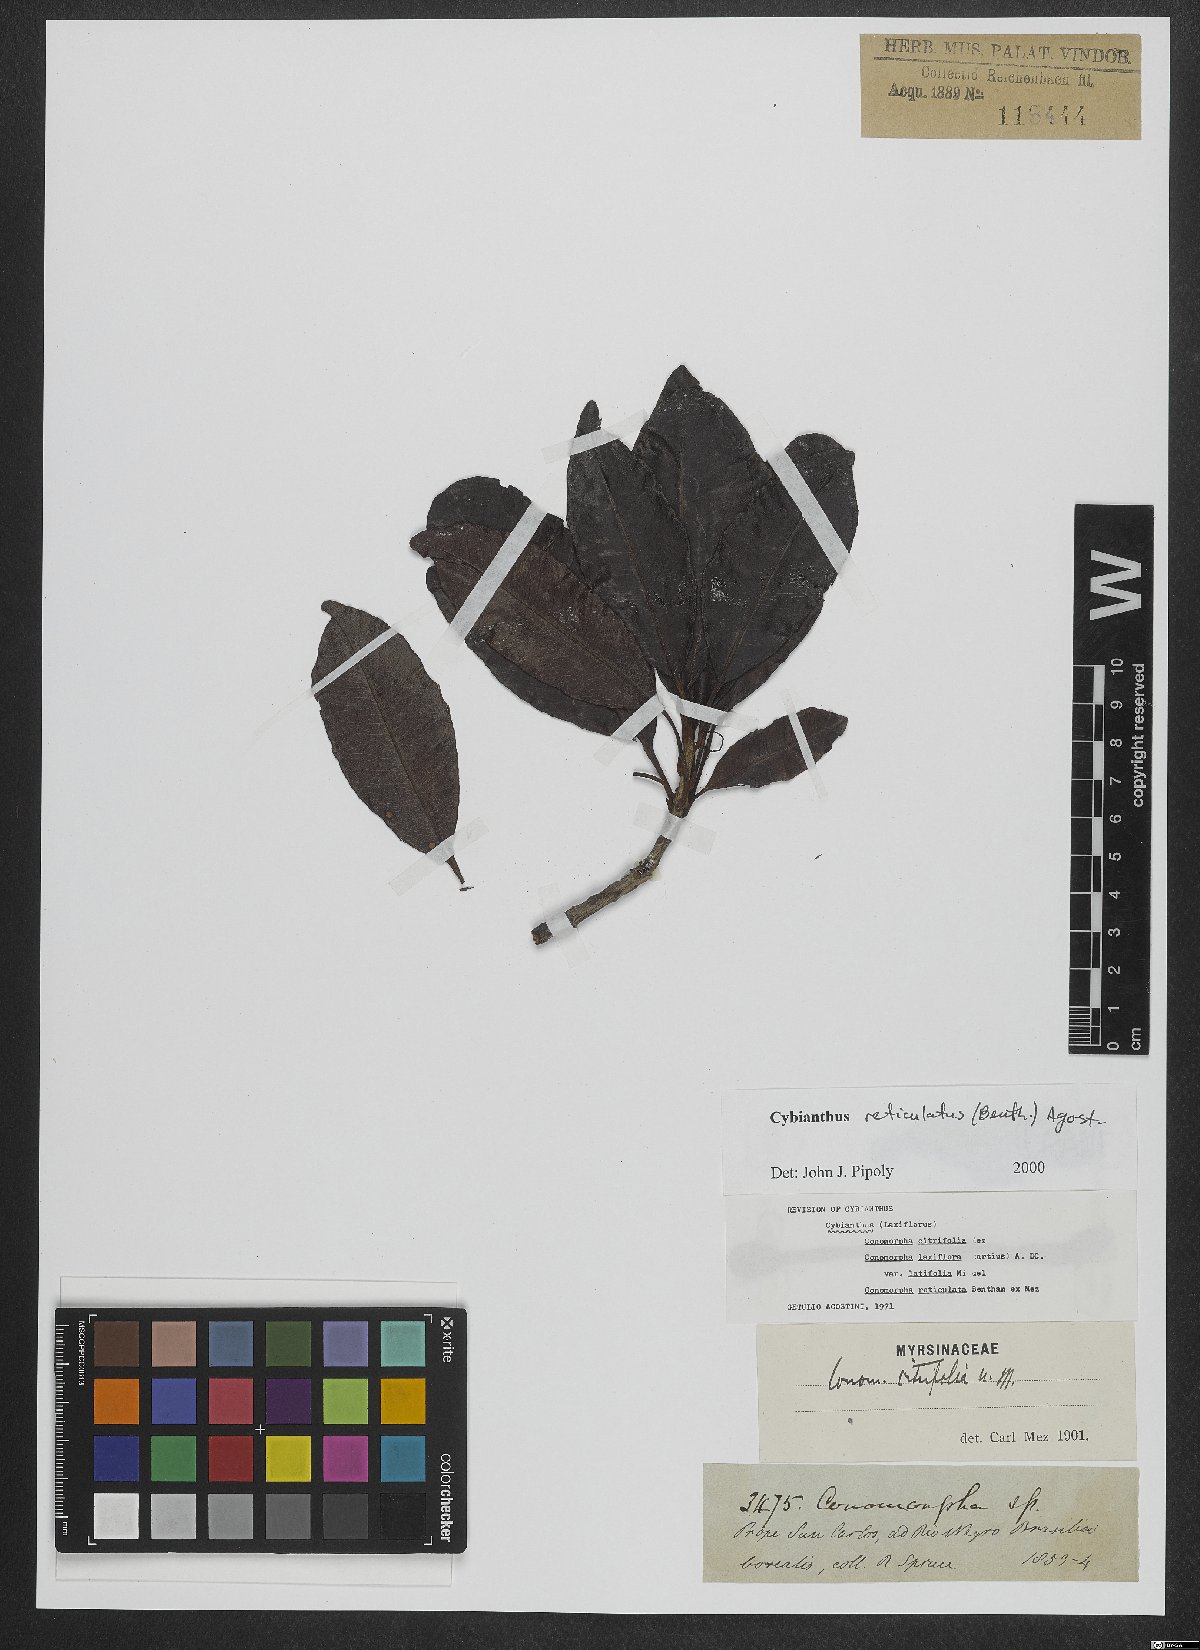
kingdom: Plantae
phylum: Tracheophyta
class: Magnoliopsida
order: Ericales
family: Primulaceae
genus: Cybianthus
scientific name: Cybianthus reticulatus
